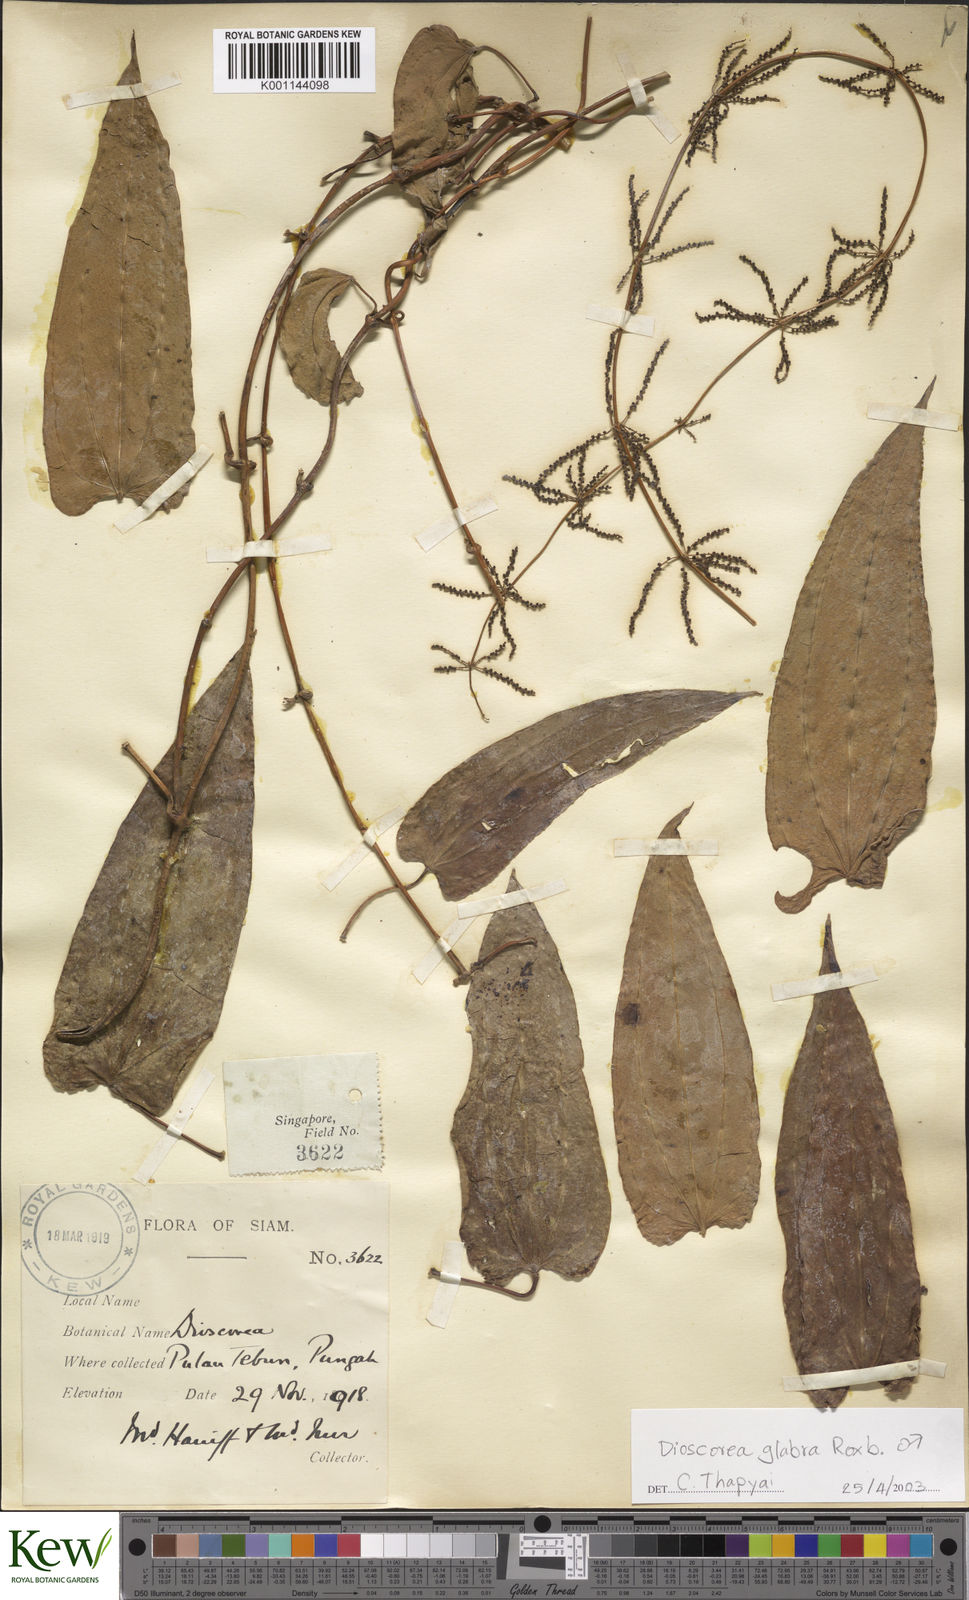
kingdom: Plantae
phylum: Tracheophyta
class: Liliopsida
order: Dioscoreales
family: Dioscoreaceae
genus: Dioscorea
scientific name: Dioscorea glabra
